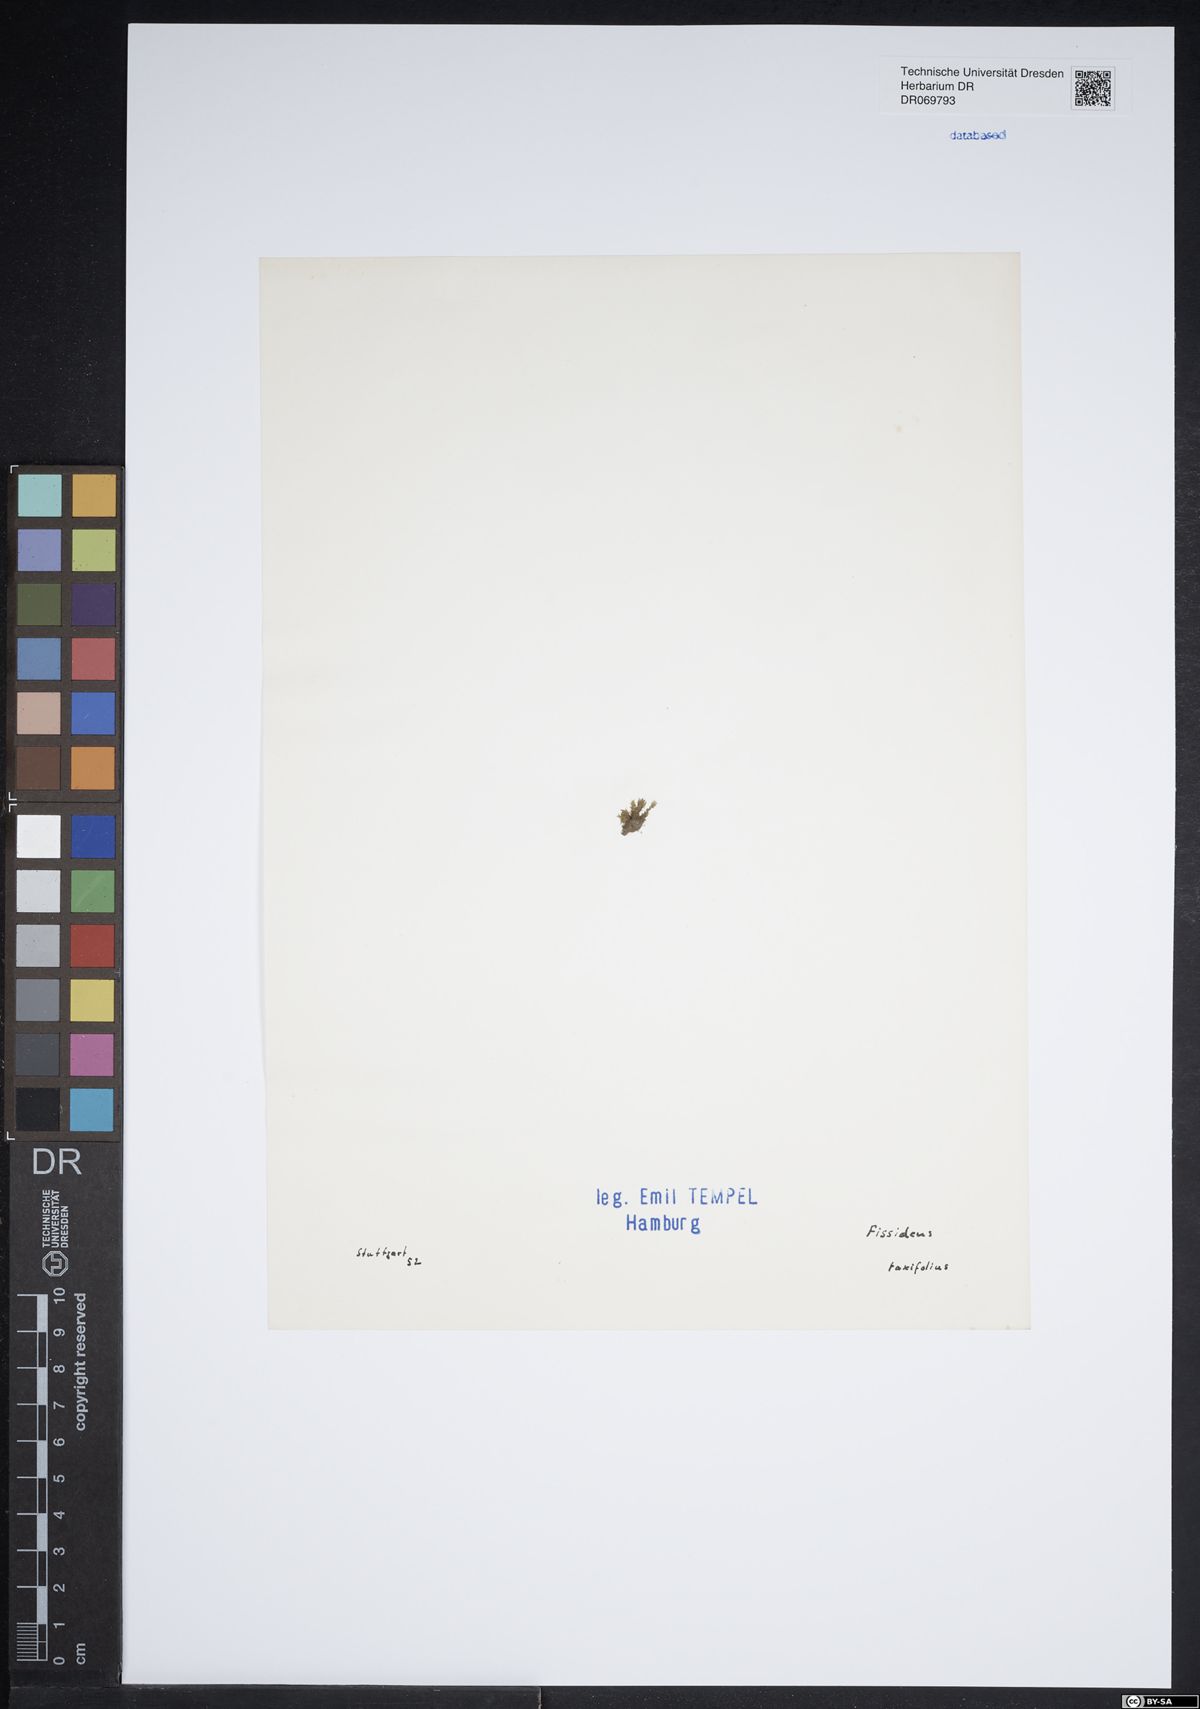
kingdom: Plantae
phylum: Bryophyta
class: Bryopsida
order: Dicranales
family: Fissidentaceae
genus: Fissidens
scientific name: Fissidens taxifolius
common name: Yew-leaved pocket moss
